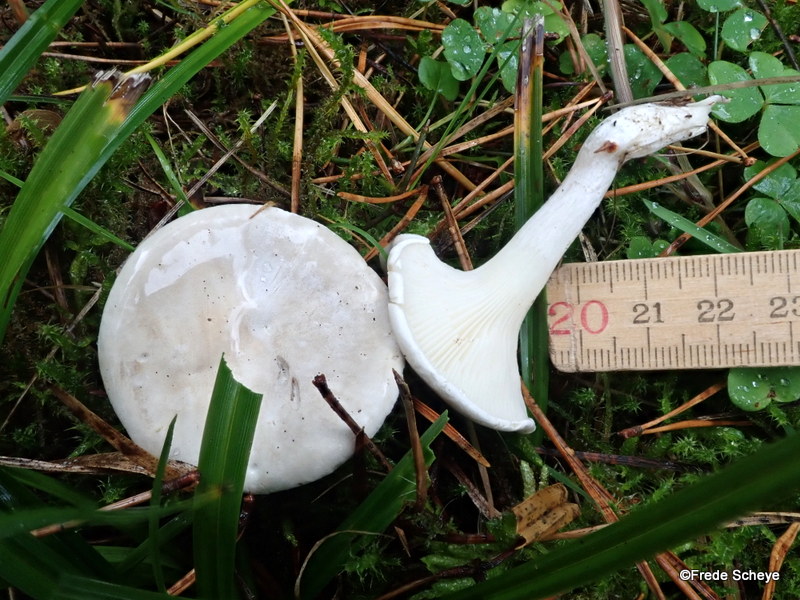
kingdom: Fungi
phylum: Basidiomycota
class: Agaricomycetes
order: Agaricales
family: Entolomataceae
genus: Clitopilus
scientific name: Clitopilus prunulus
